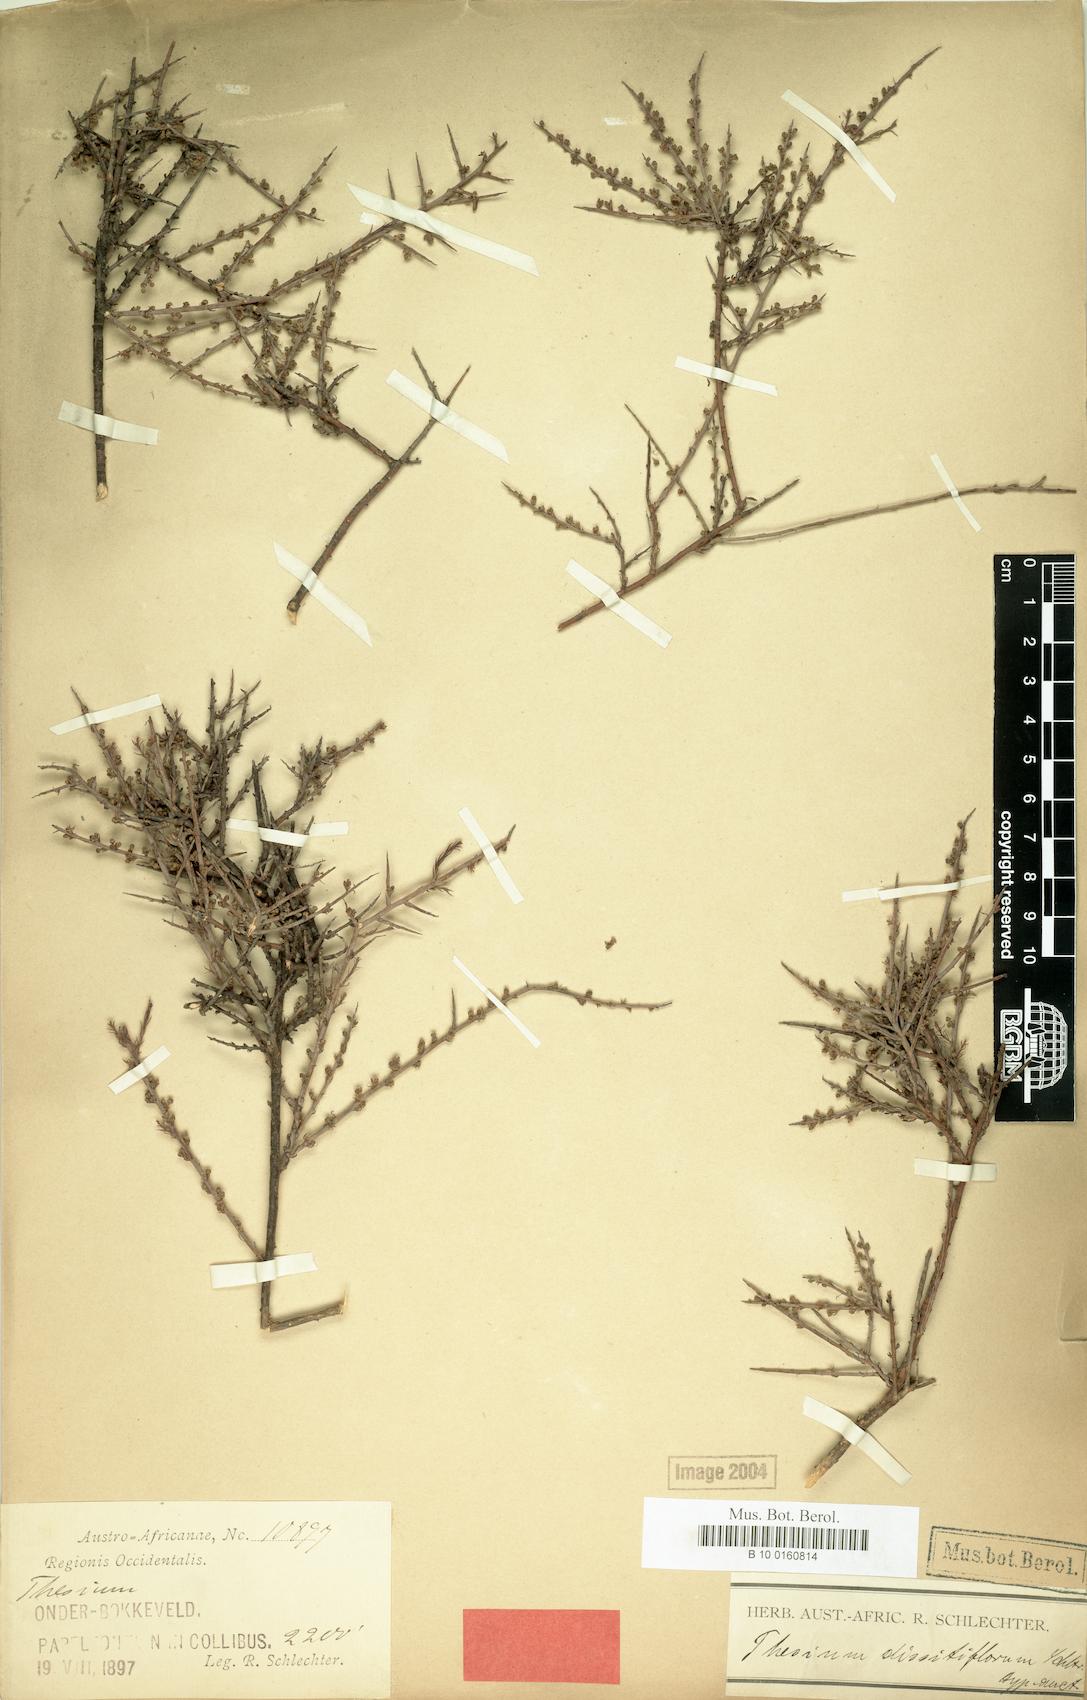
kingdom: Plantae
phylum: Tracheophyta
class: Magnoliopsida
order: Santalales
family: Thesiaceae
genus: Thesium
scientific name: Thesium dissitiflorum
